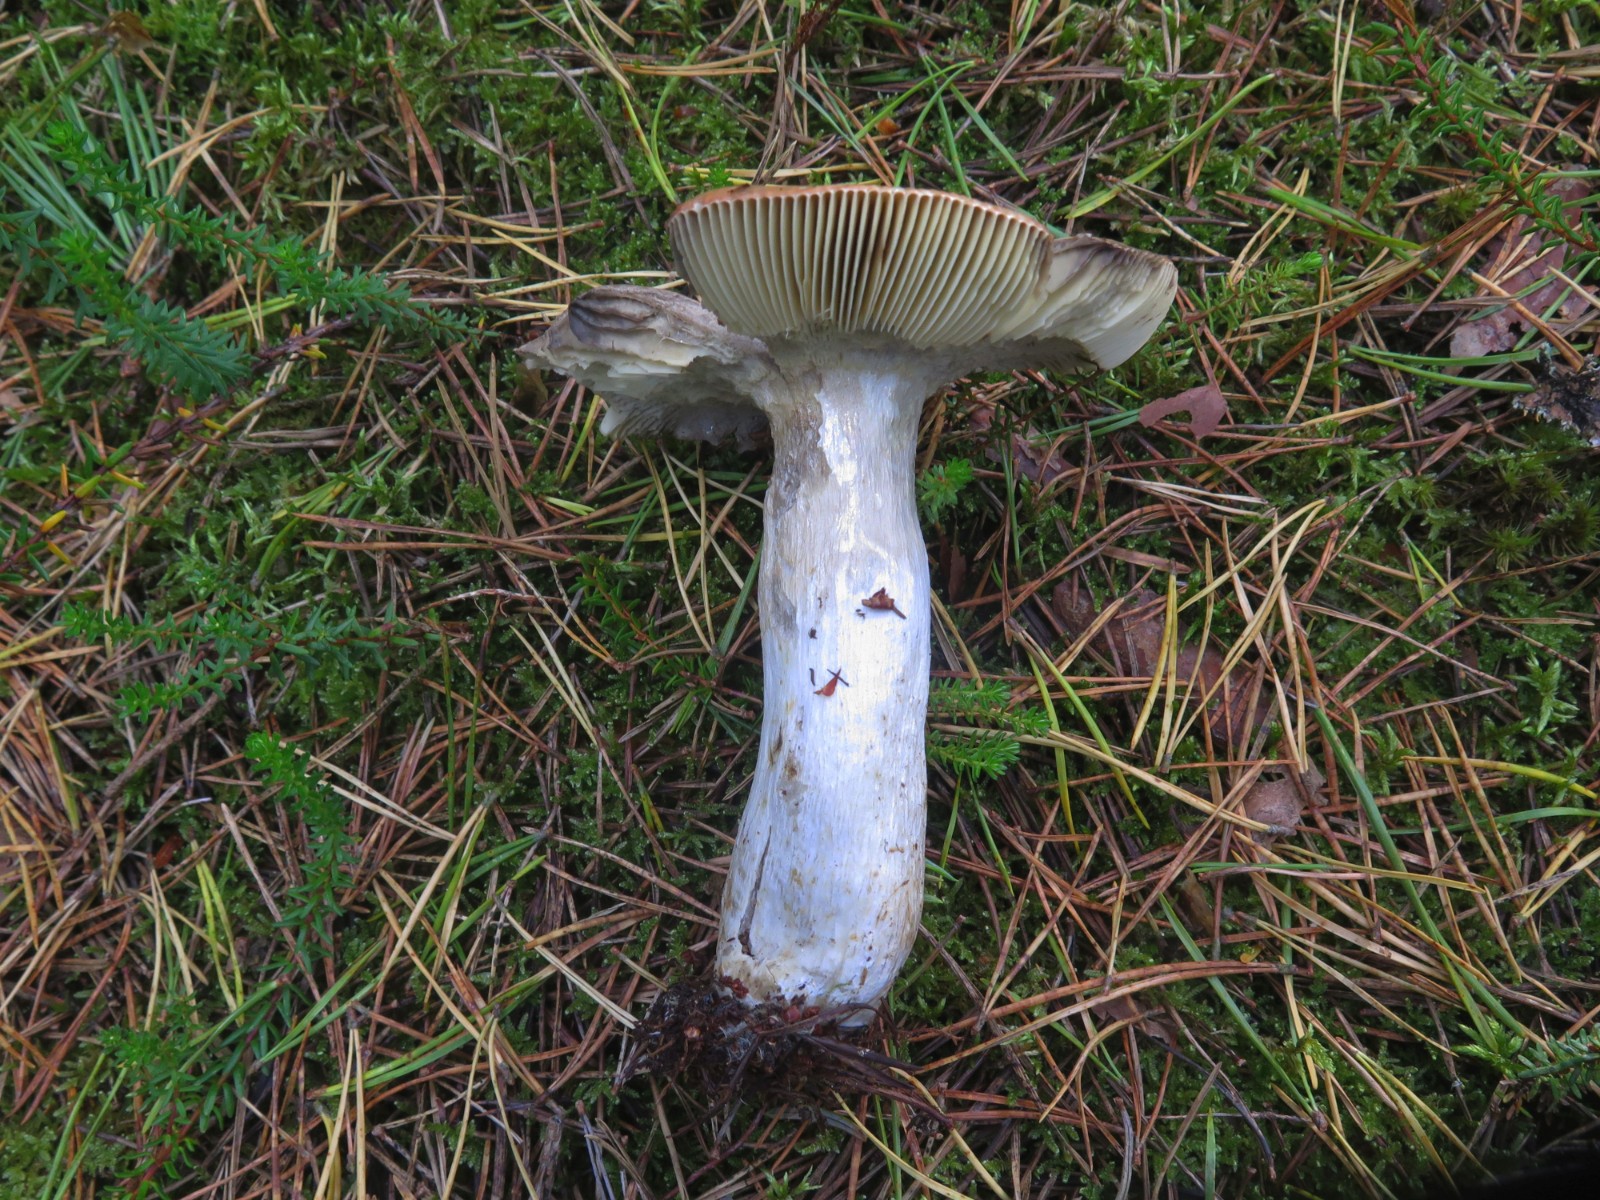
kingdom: Fungi
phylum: Basidiomycota
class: Agaricomycetes
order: Russulales
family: Russulaceae
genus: Russula
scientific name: Russula decolorans
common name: afblegende skørhat
